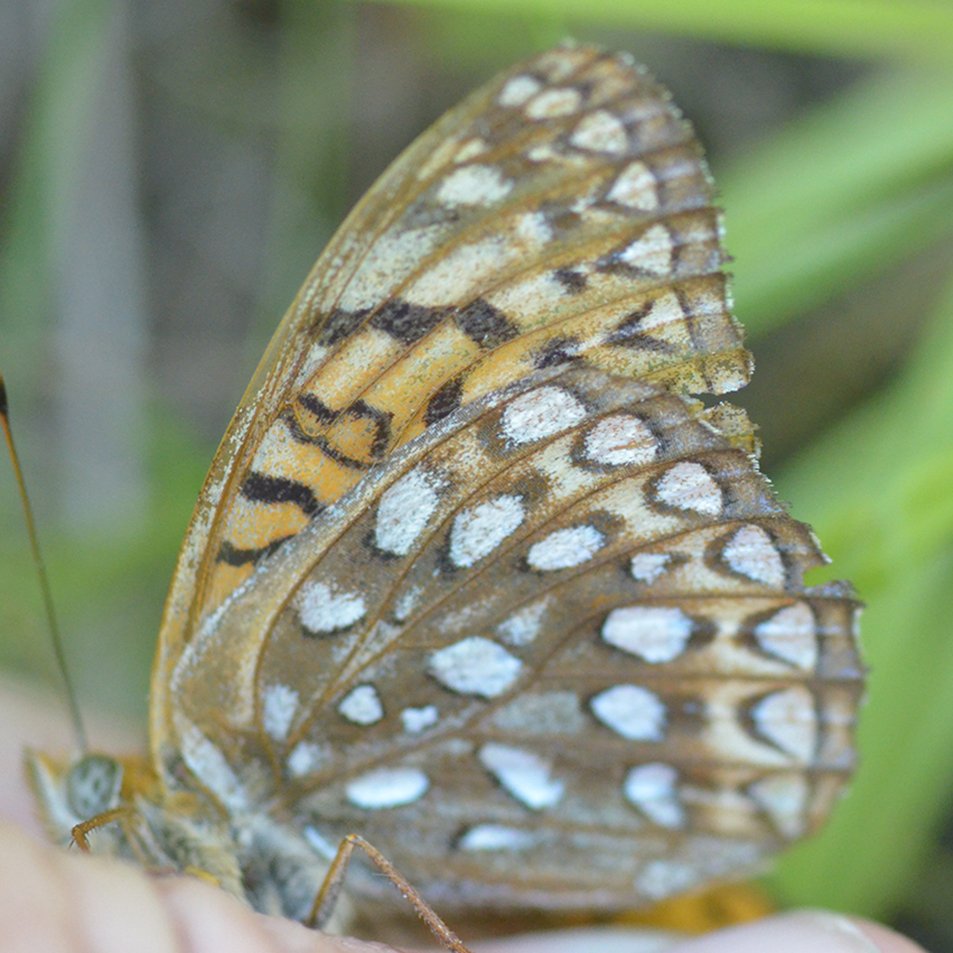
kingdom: Animalia
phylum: Arthropoda
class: Insecta
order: Lepidoptera
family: Nymphalidae
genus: Speyeria
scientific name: Speyeria atlantis
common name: Atlantis Fritillary
